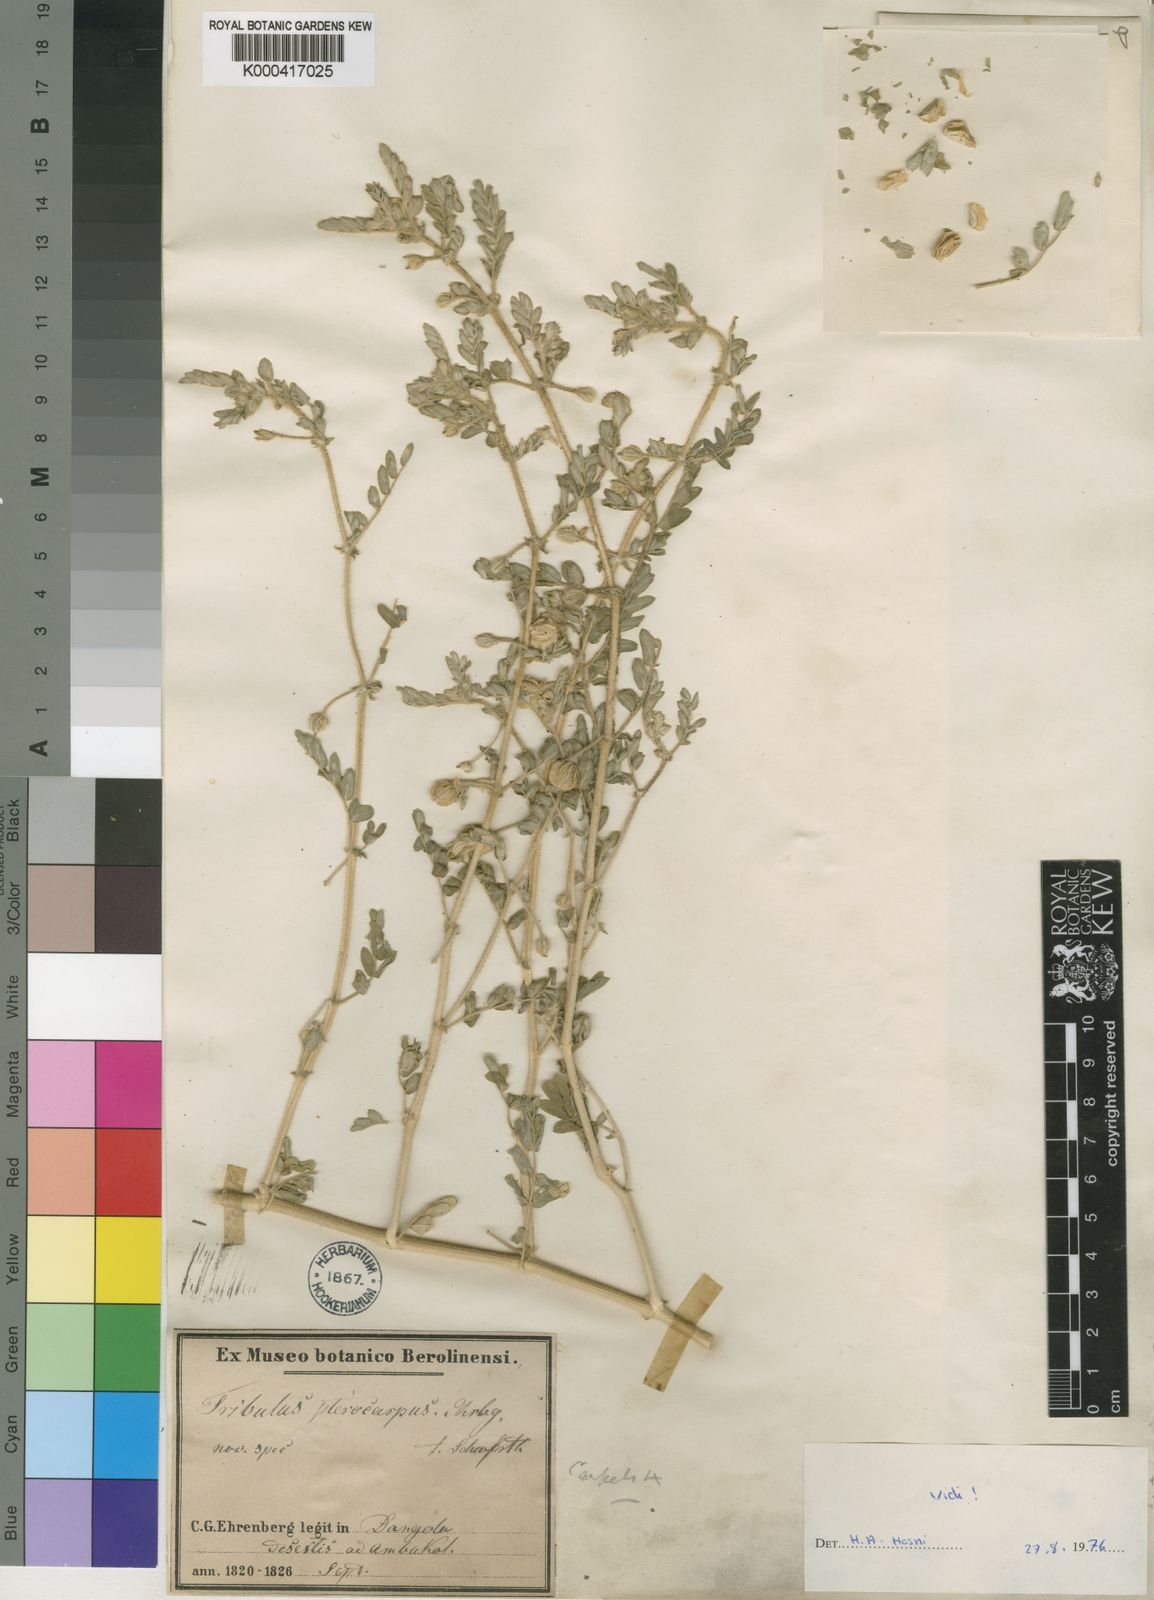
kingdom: Plantae
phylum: Tracheophyta
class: Magnoliopsida
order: Zygophyllales
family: Zygophyllaceae
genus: Tribulus
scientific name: Tribulus
